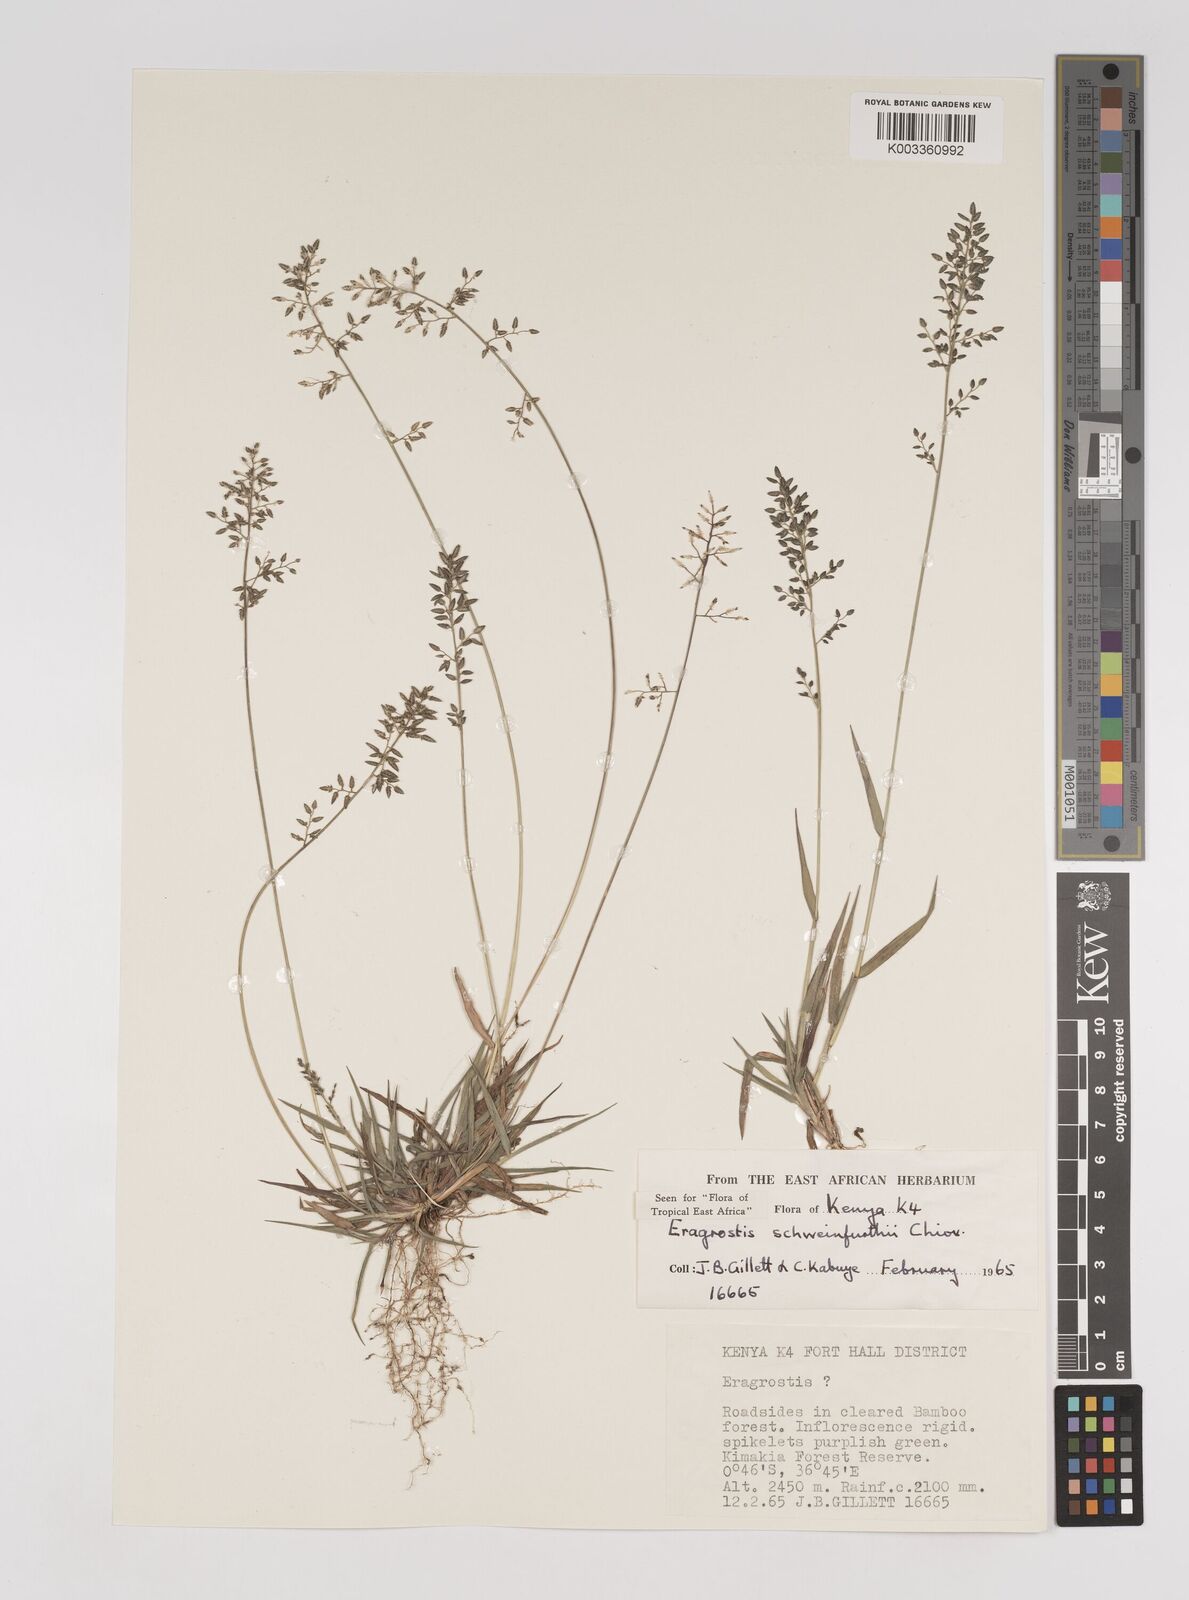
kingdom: Plantae
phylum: Tracheophyta
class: Liliopsida
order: Poales
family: Poaceae
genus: Eragrostis
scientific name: Eragrostis schweinfurthii
